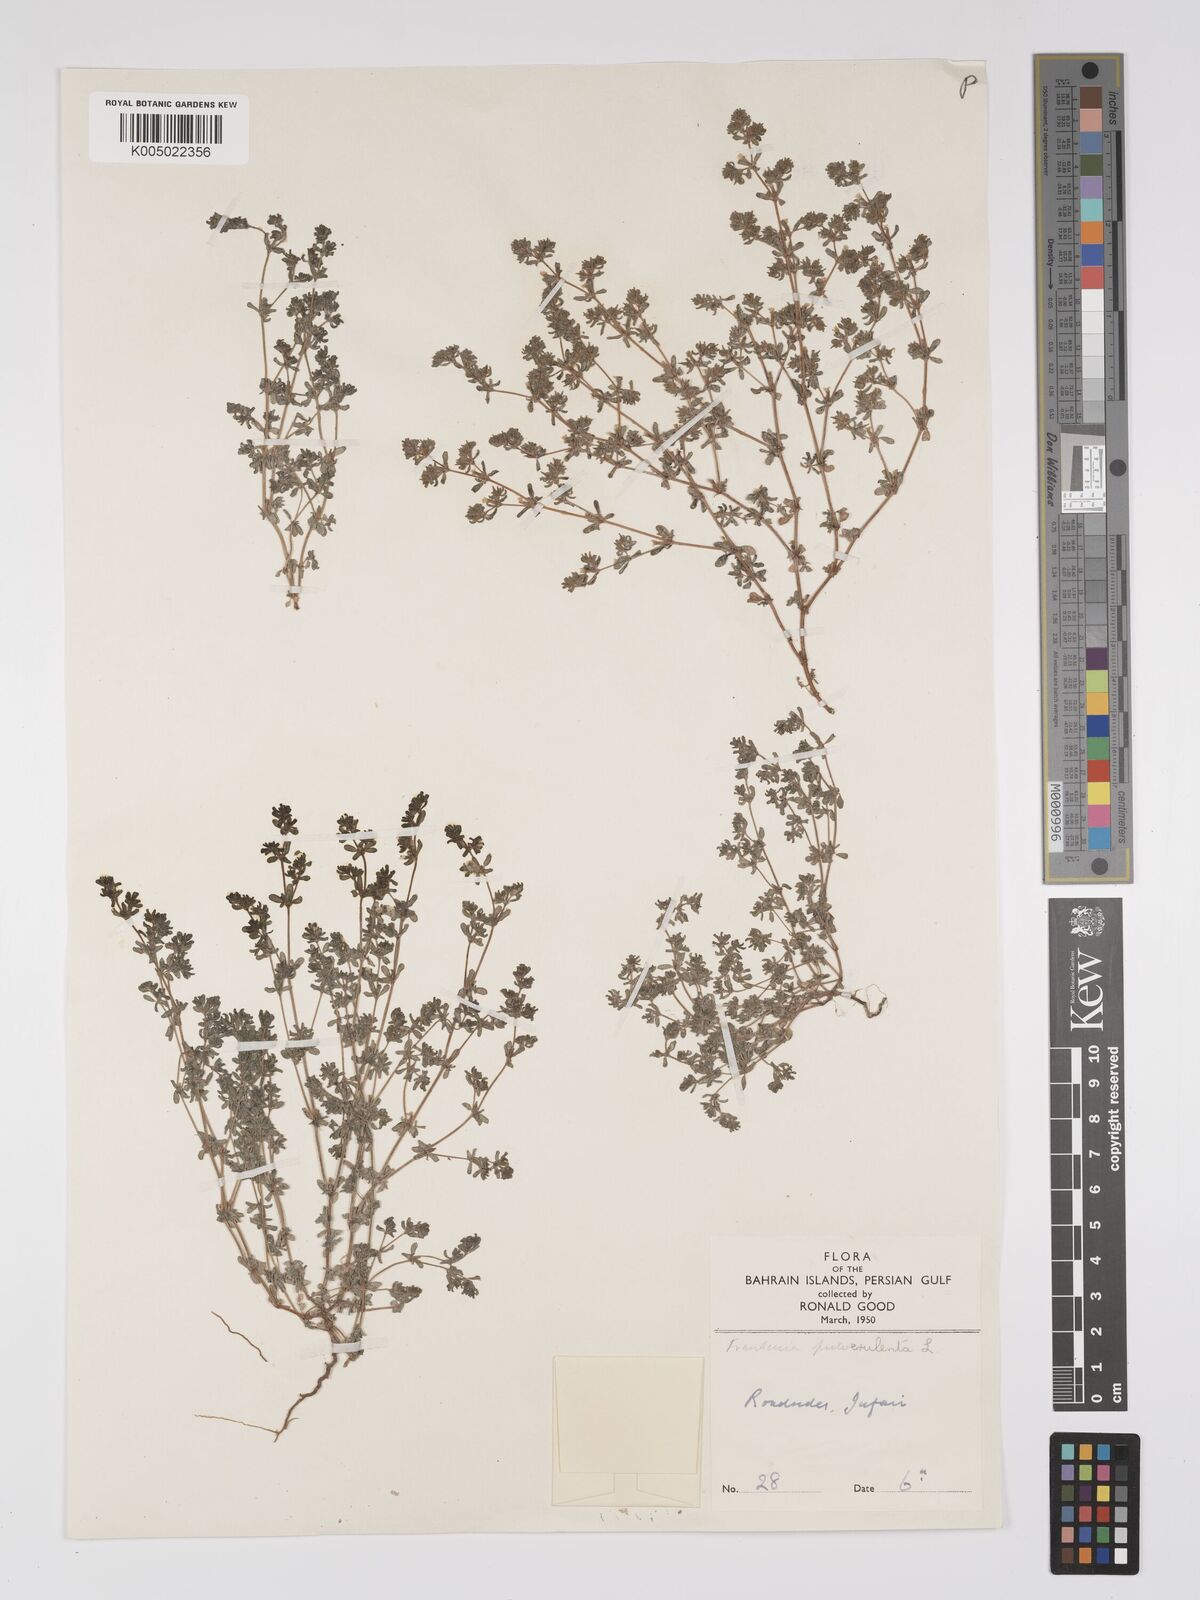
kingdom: Plantae
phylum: Tracheophyta
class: Magnoliopsida
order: Caryophyllales
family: Frankeniaceae
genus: Frankenia
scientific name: Frankenia pulverulenta
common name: European seaheath
